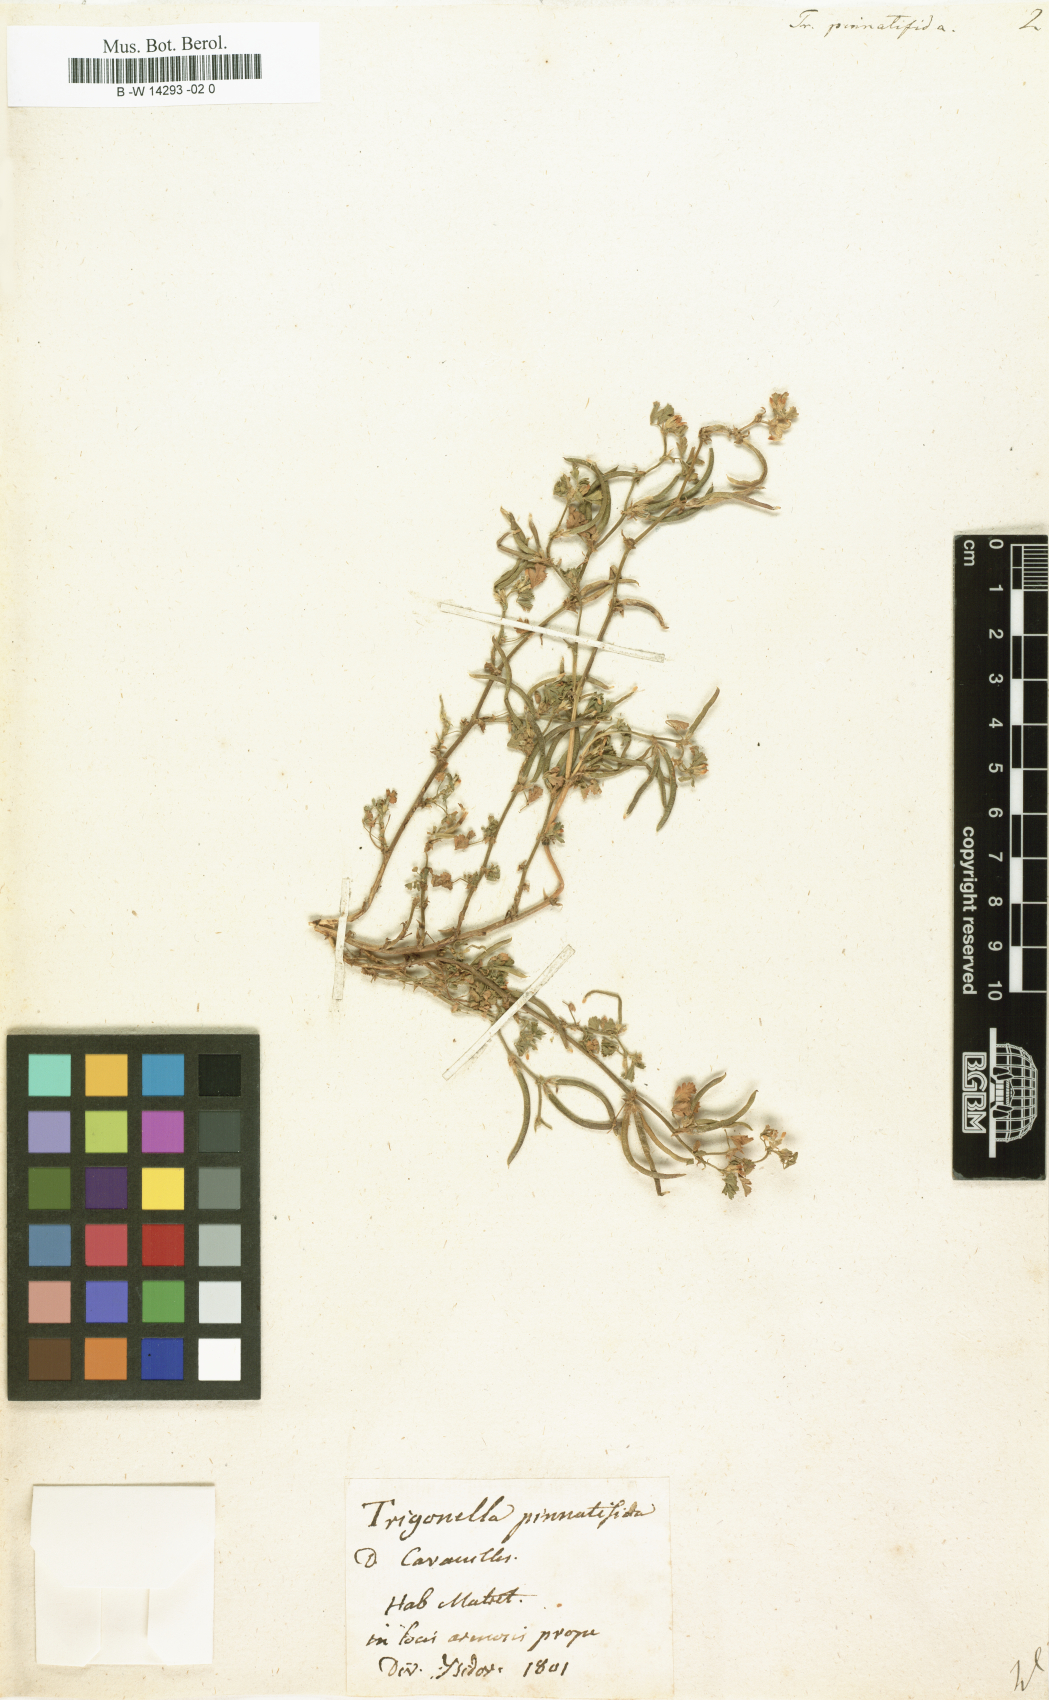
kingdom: Plantae
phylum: Tracheophyta
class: Magnoliopsida
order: Fabales
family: Fabaceae
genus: Medicago
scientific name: Medicago polyceratia
